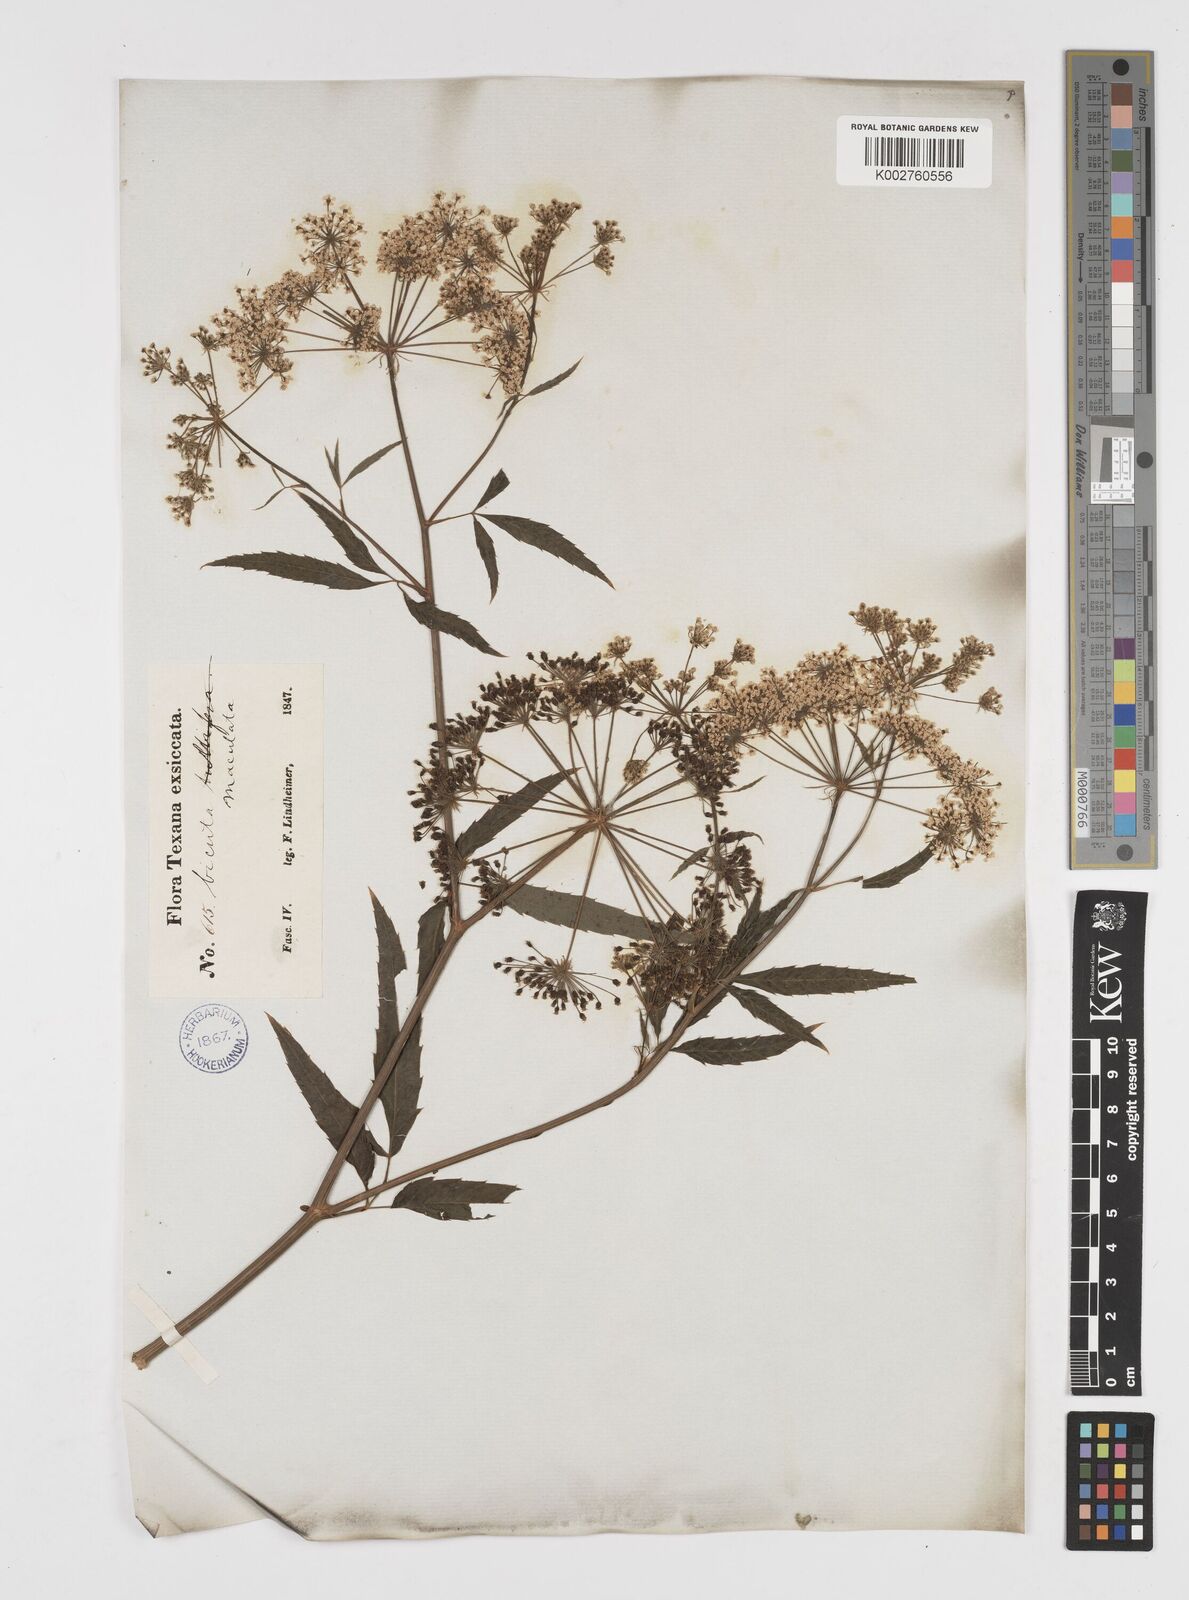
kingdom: Plantae
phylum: Tracheophyta
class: Magnoliopsida
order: Apiales
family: Apiaceae
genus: Cicuta
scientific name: Cicuta douglasii
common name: Western water-hemlock
